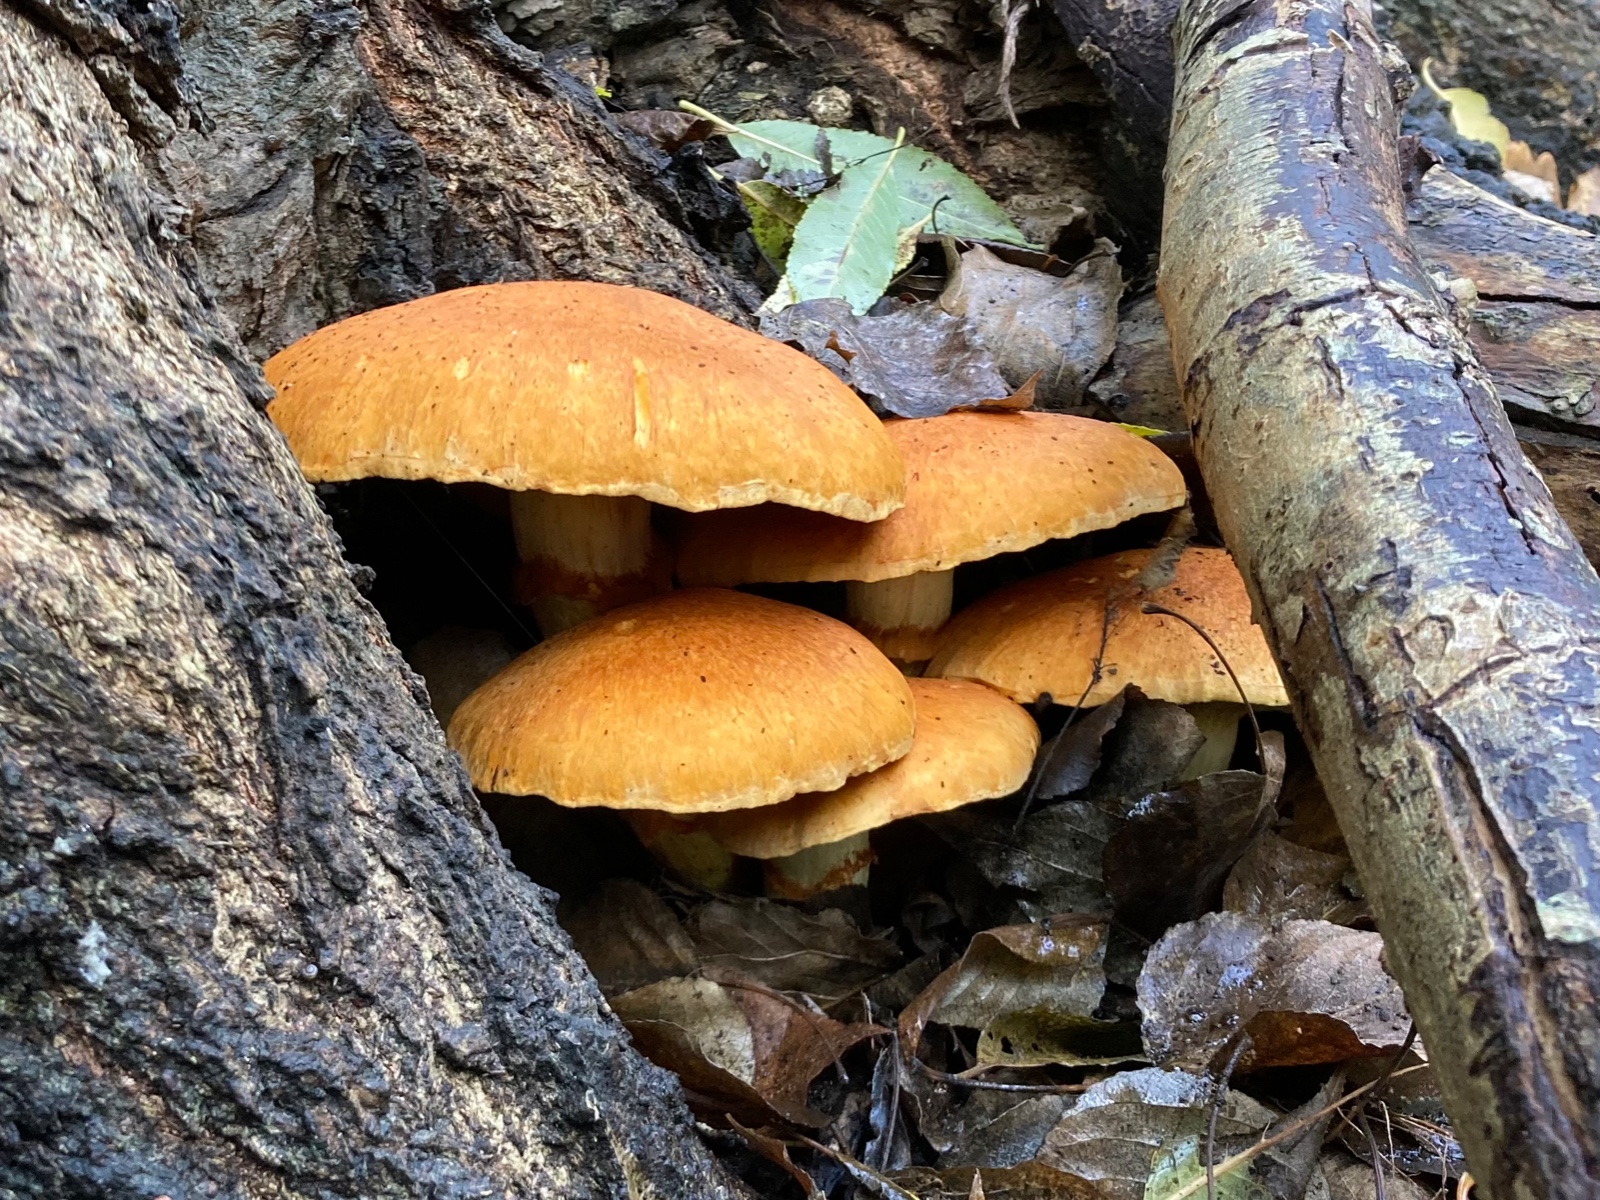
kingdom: Fungi
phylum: Basidiomycota
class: Agaricomycetes
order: Agaricales
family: Hymenogastraceae
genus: Gymnopilus
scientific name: Gymnopilus spectabilis
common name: fibret flammehat
